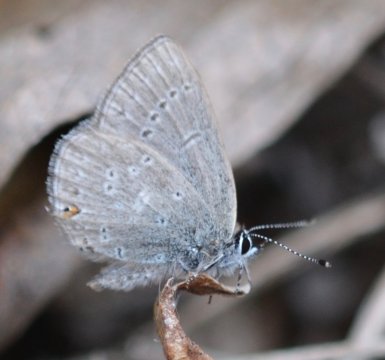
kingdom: Animalia
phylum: Arthropoda
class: Insecta
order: Lepidoptera
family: Lycaenidae
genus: Elkalyce
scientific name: Elkalyce amyntula
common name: Western Tailed-Blue
